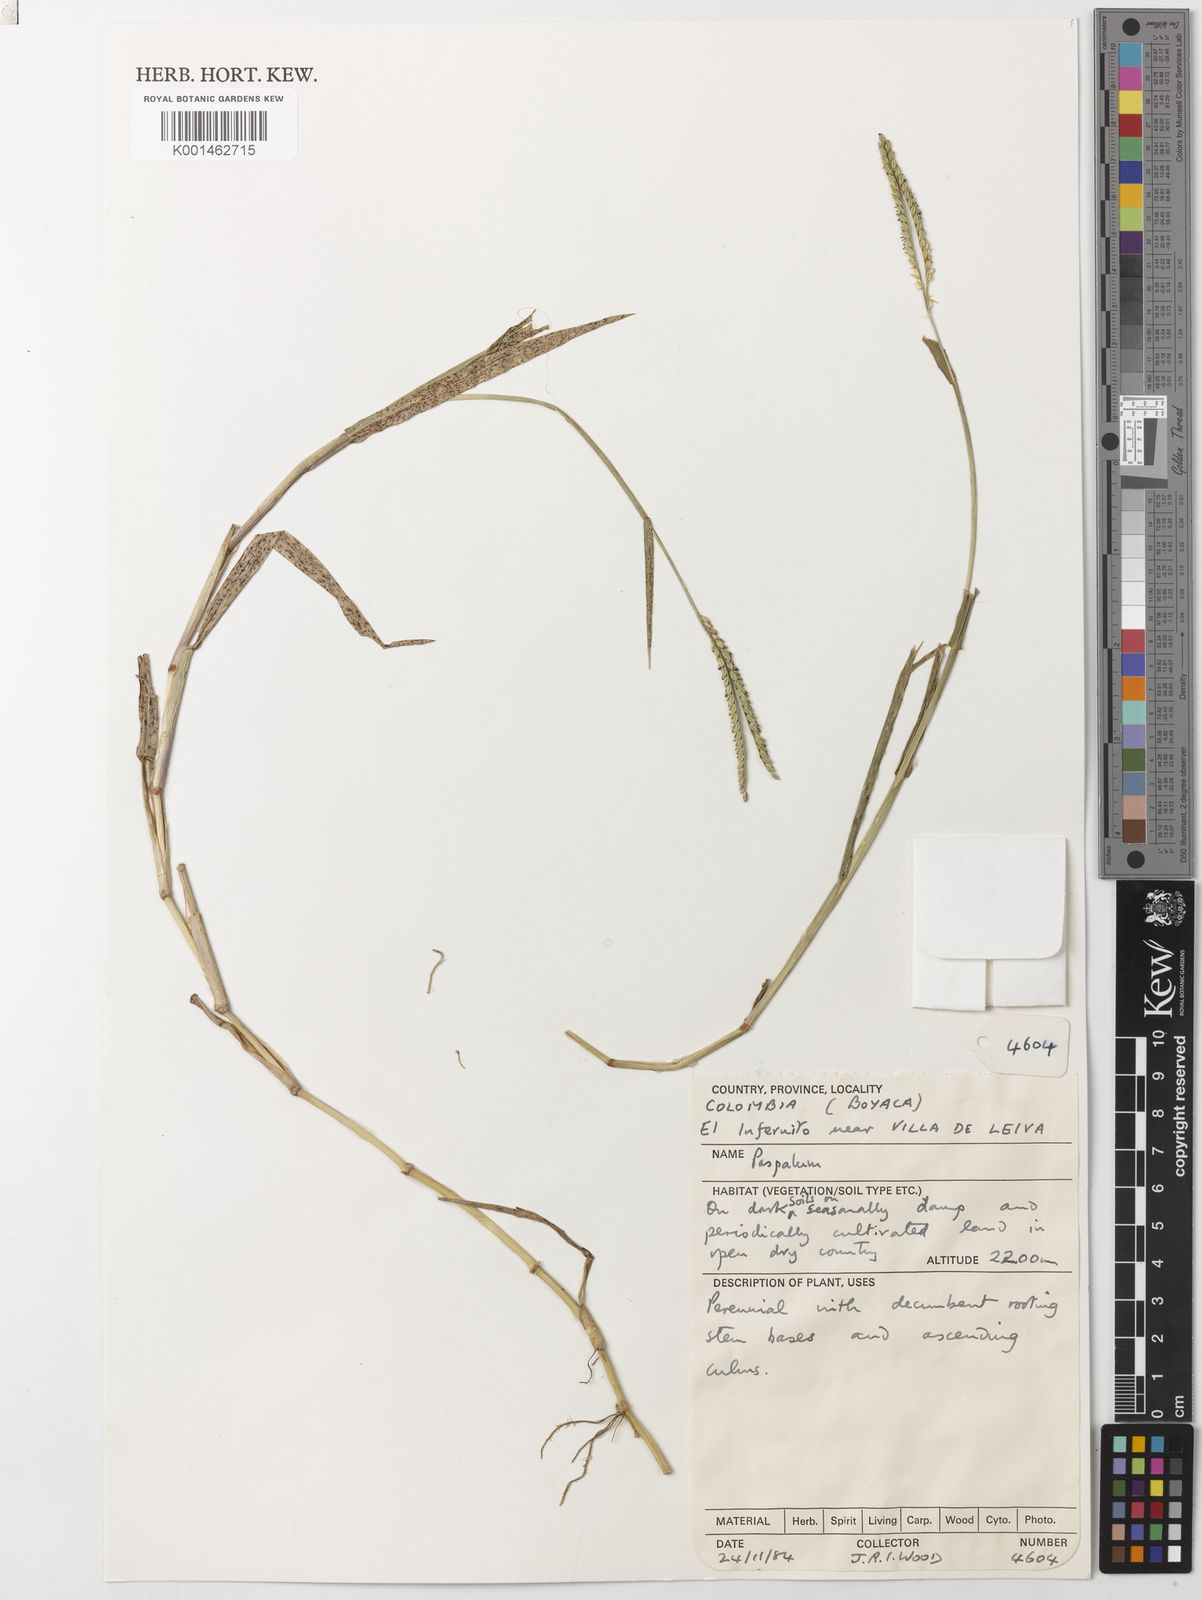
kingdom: Plantae
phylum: Tracheophyta
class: Liliopsida
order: Poales
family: Poaceae
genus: Paspalum
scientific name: Paspalum distichum
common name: Knotgrass
